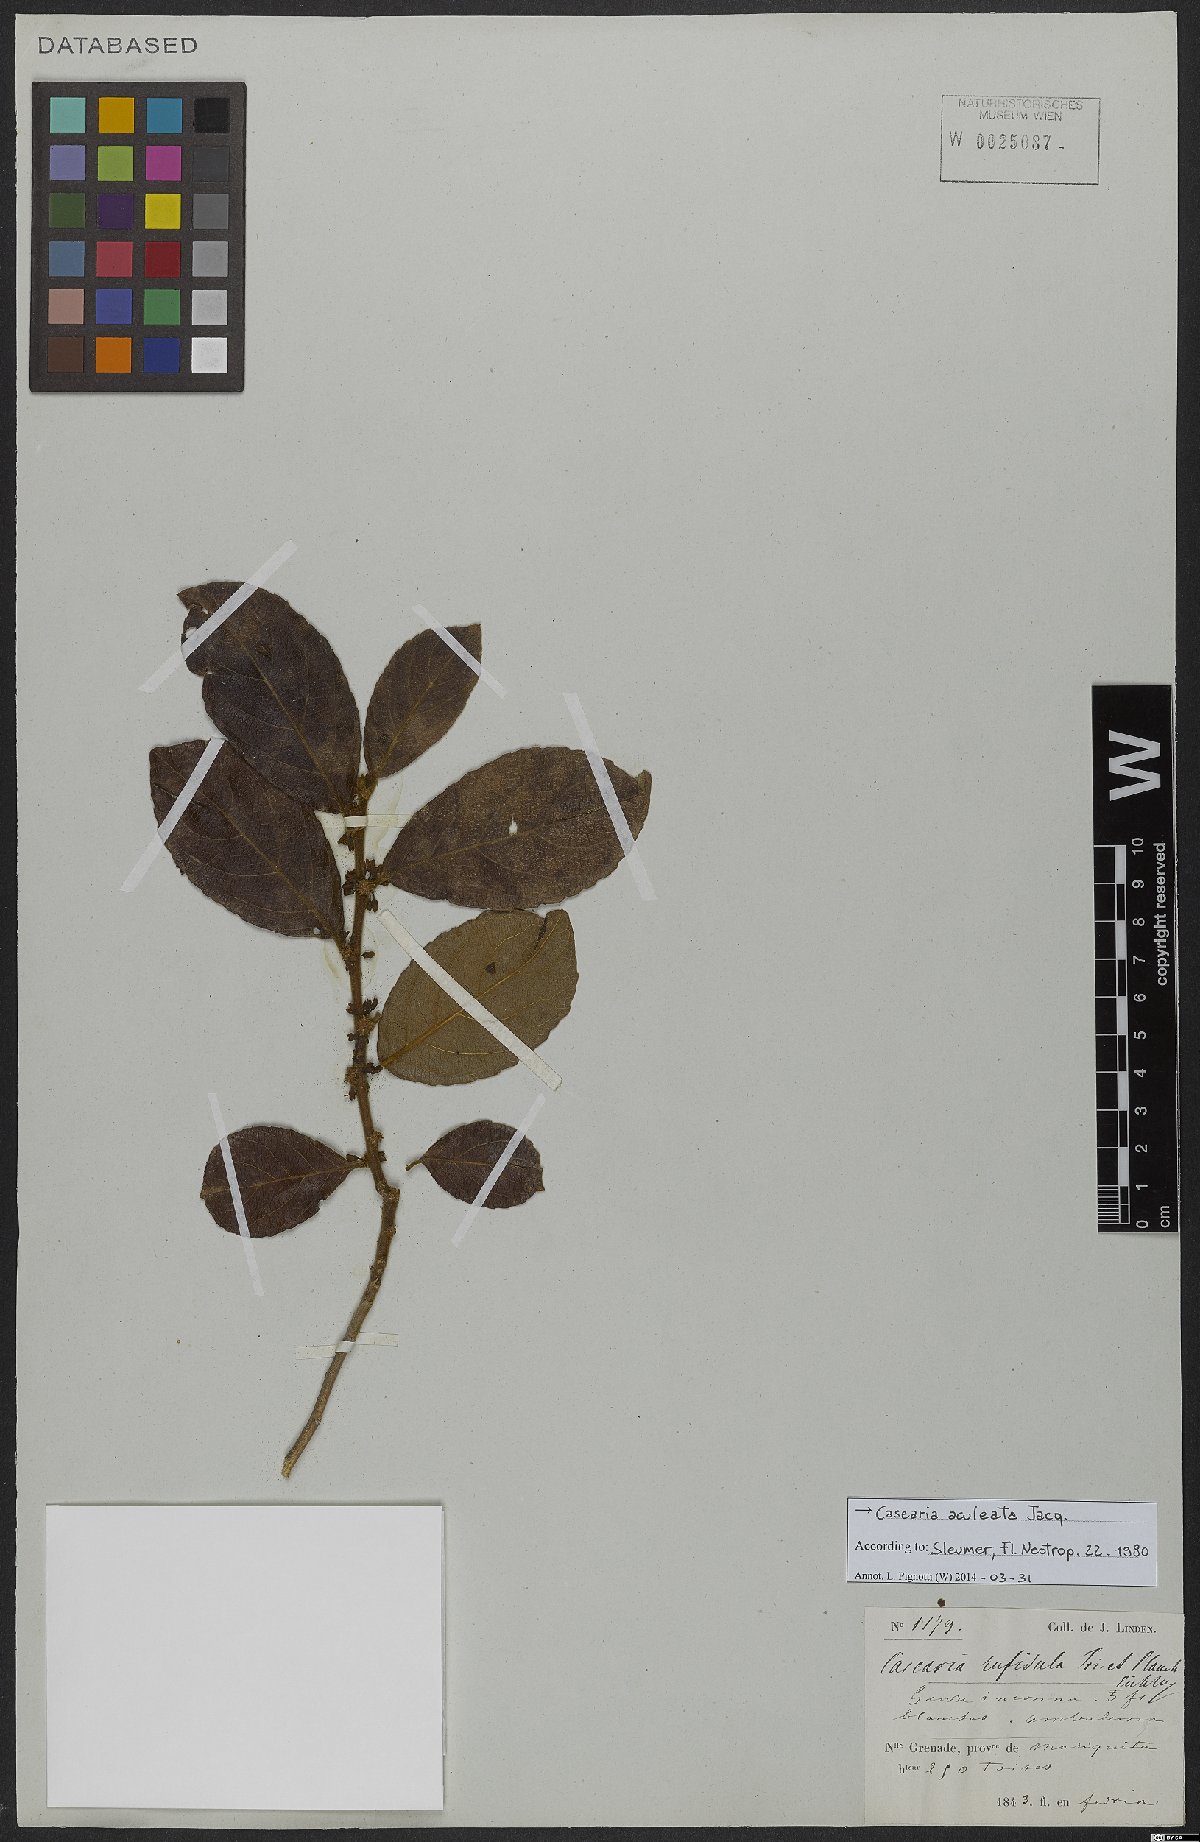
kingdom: Plantae
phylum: Tracheophyta
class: Magnoliopsida
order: Malpighiales
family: Salicaceae
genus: Casearia
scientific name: Casearia aculeata
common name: Cockspur
